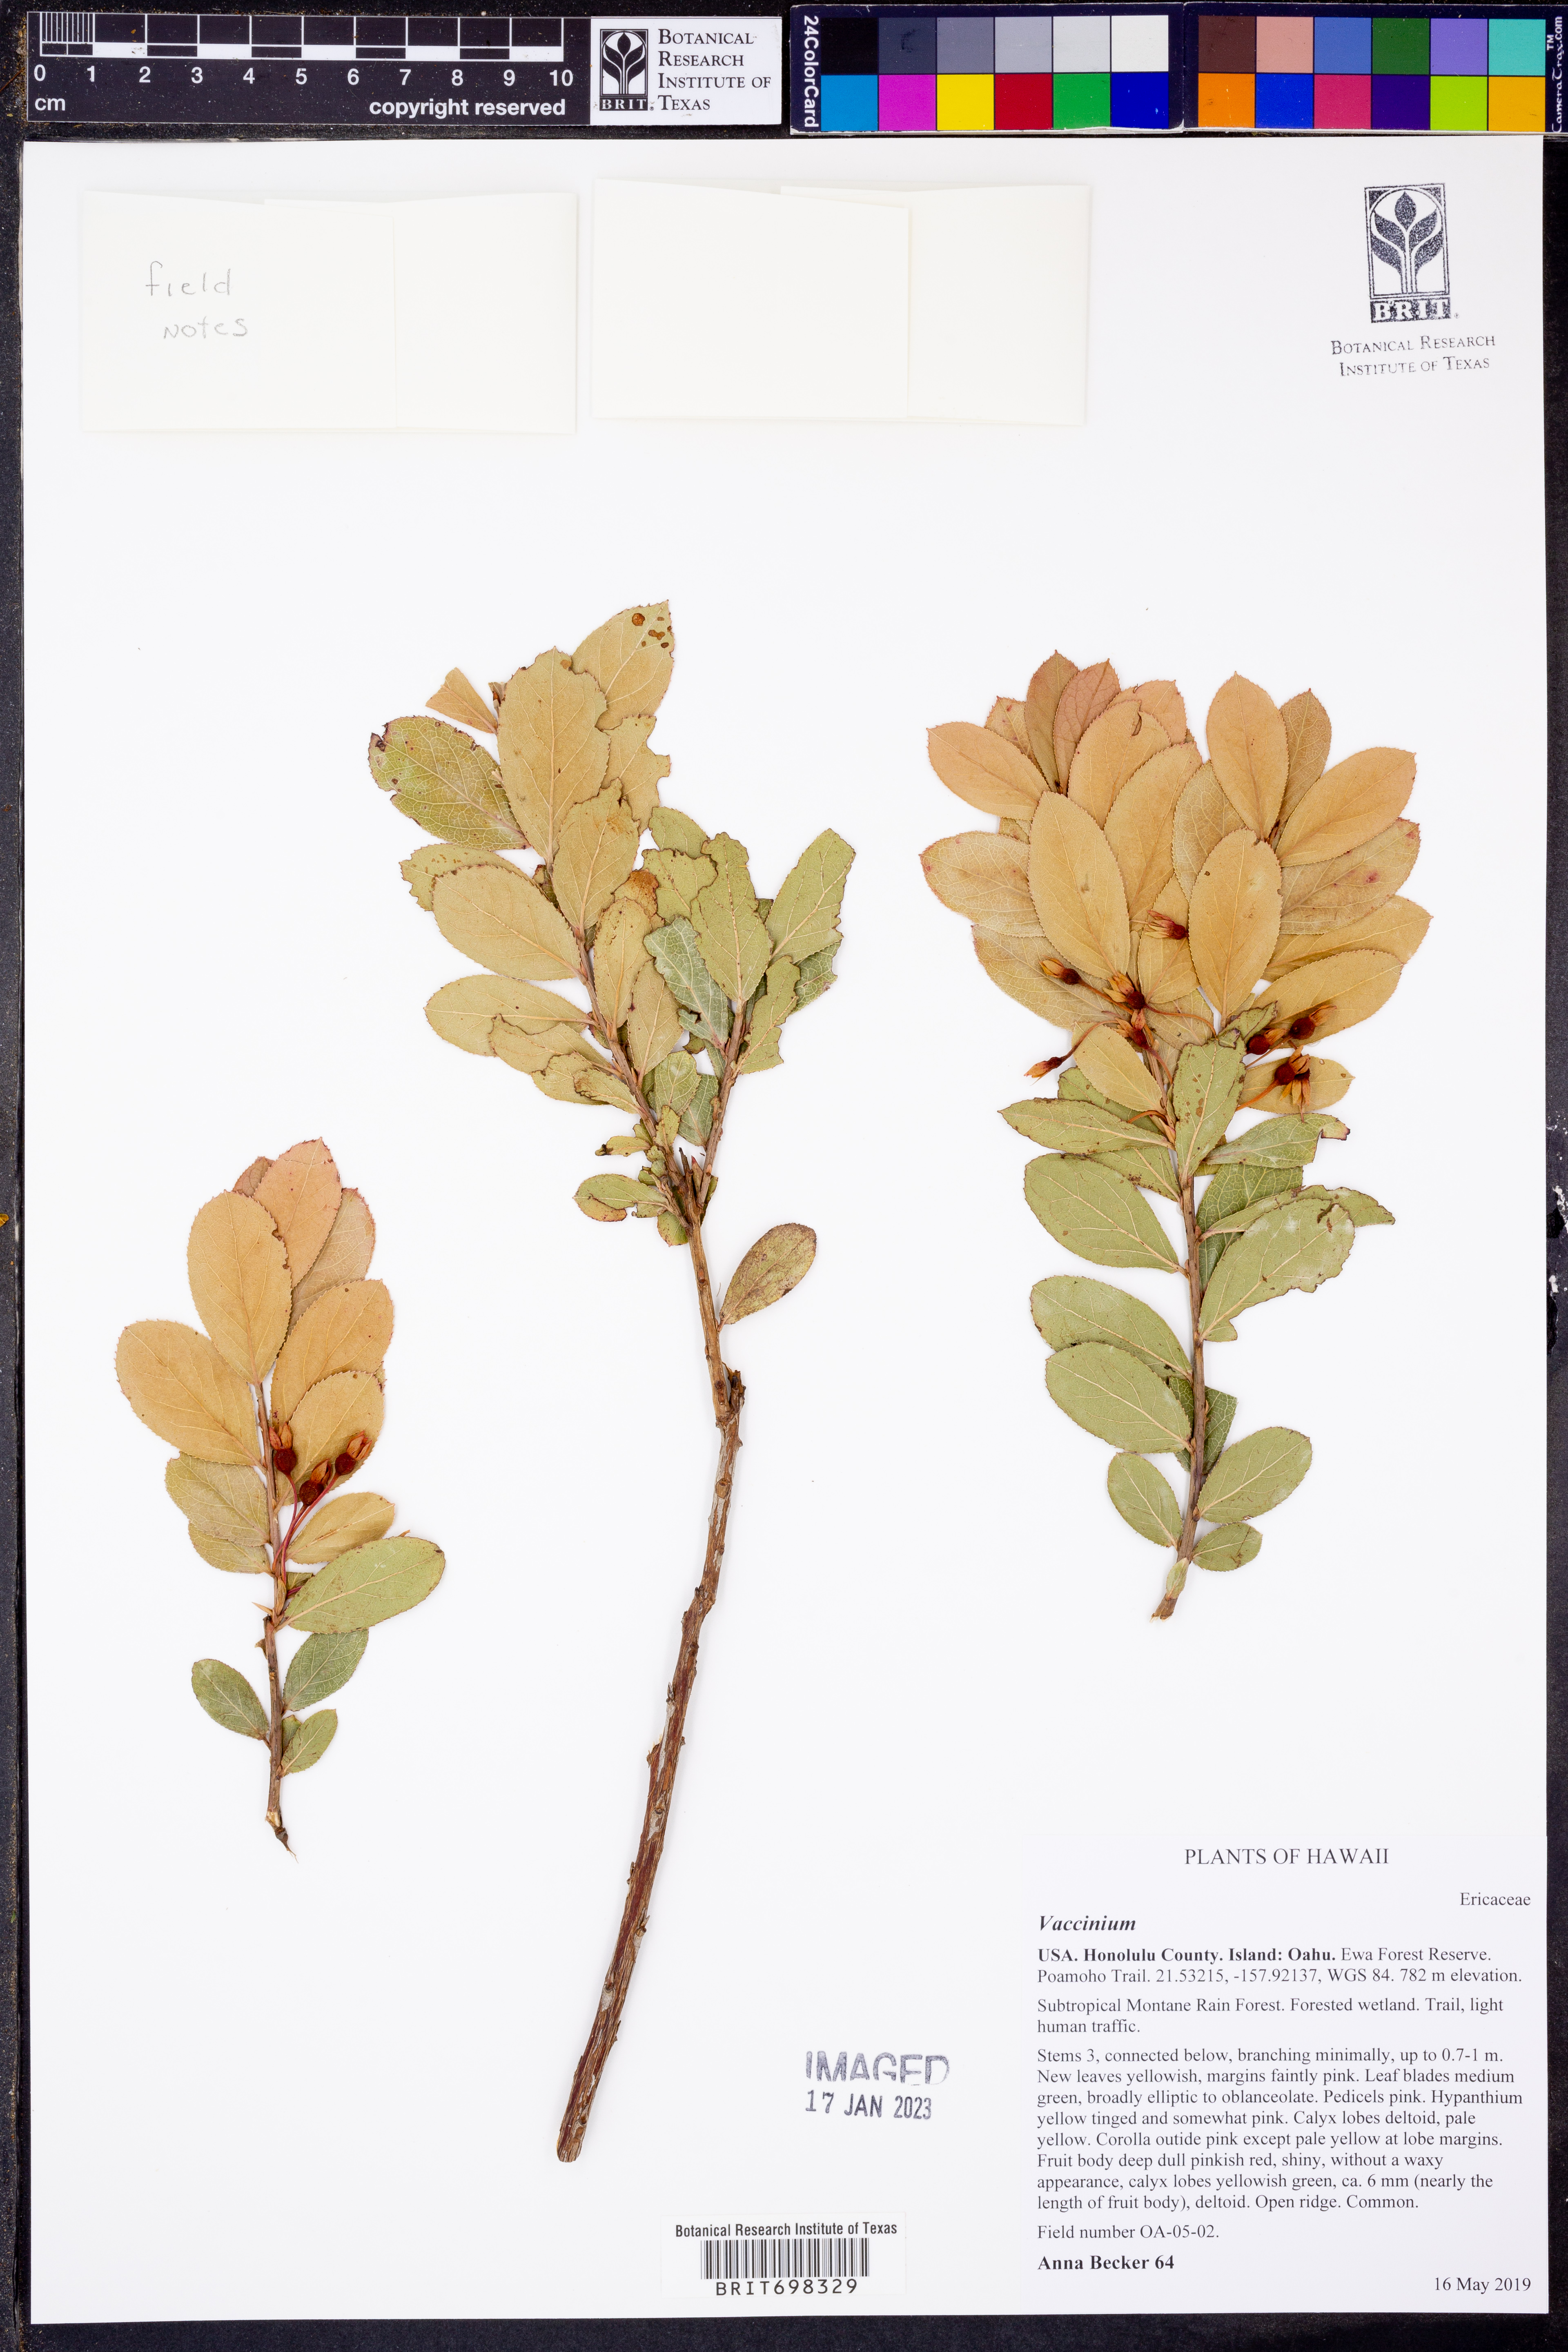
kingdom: Plantae
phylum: Tracheophyta
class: Magnoliopsida
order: Ericales
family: Ericaceae
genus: Vaccinium
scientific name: Vaccinium
